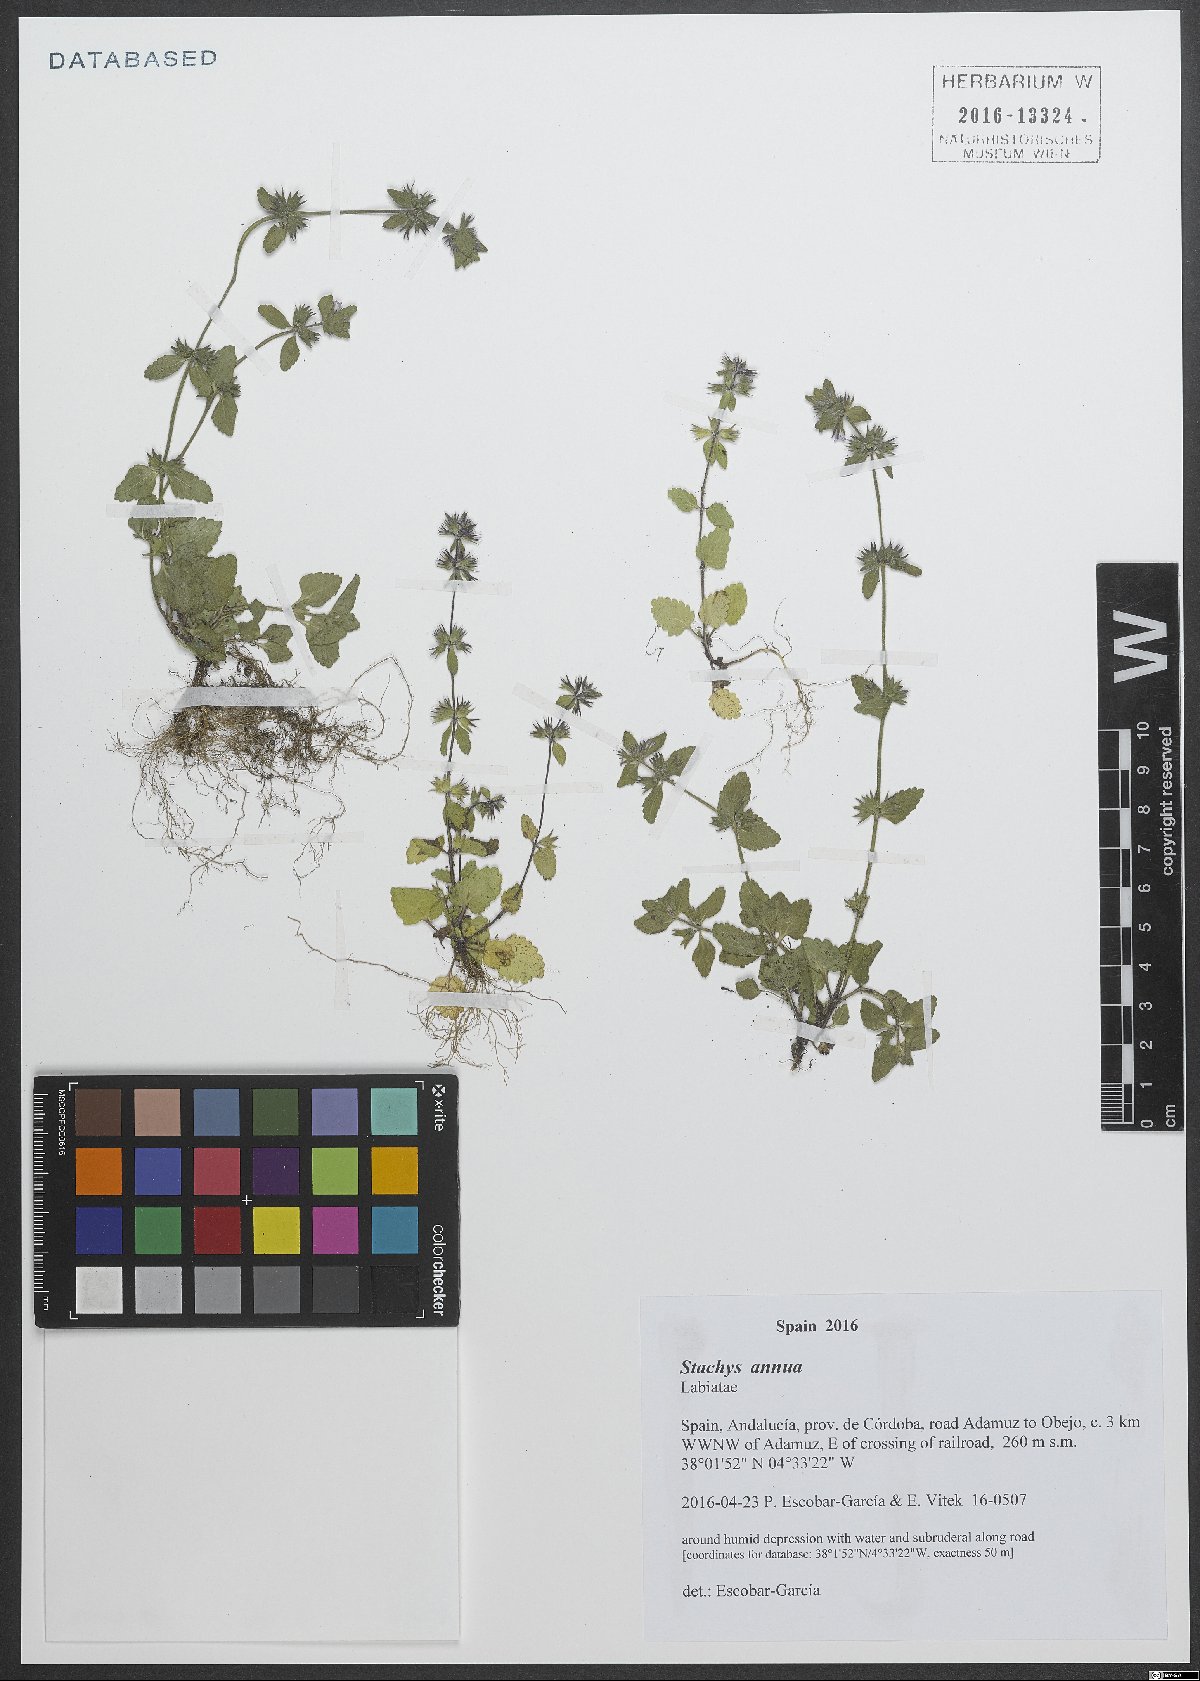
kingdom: Plantae
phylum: Tracheophyta
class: Magnoliopsida
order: Lamiales
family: Lamiaceae
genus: Stachys
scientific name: Stachys annua
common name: Annual yellow-woundwort
